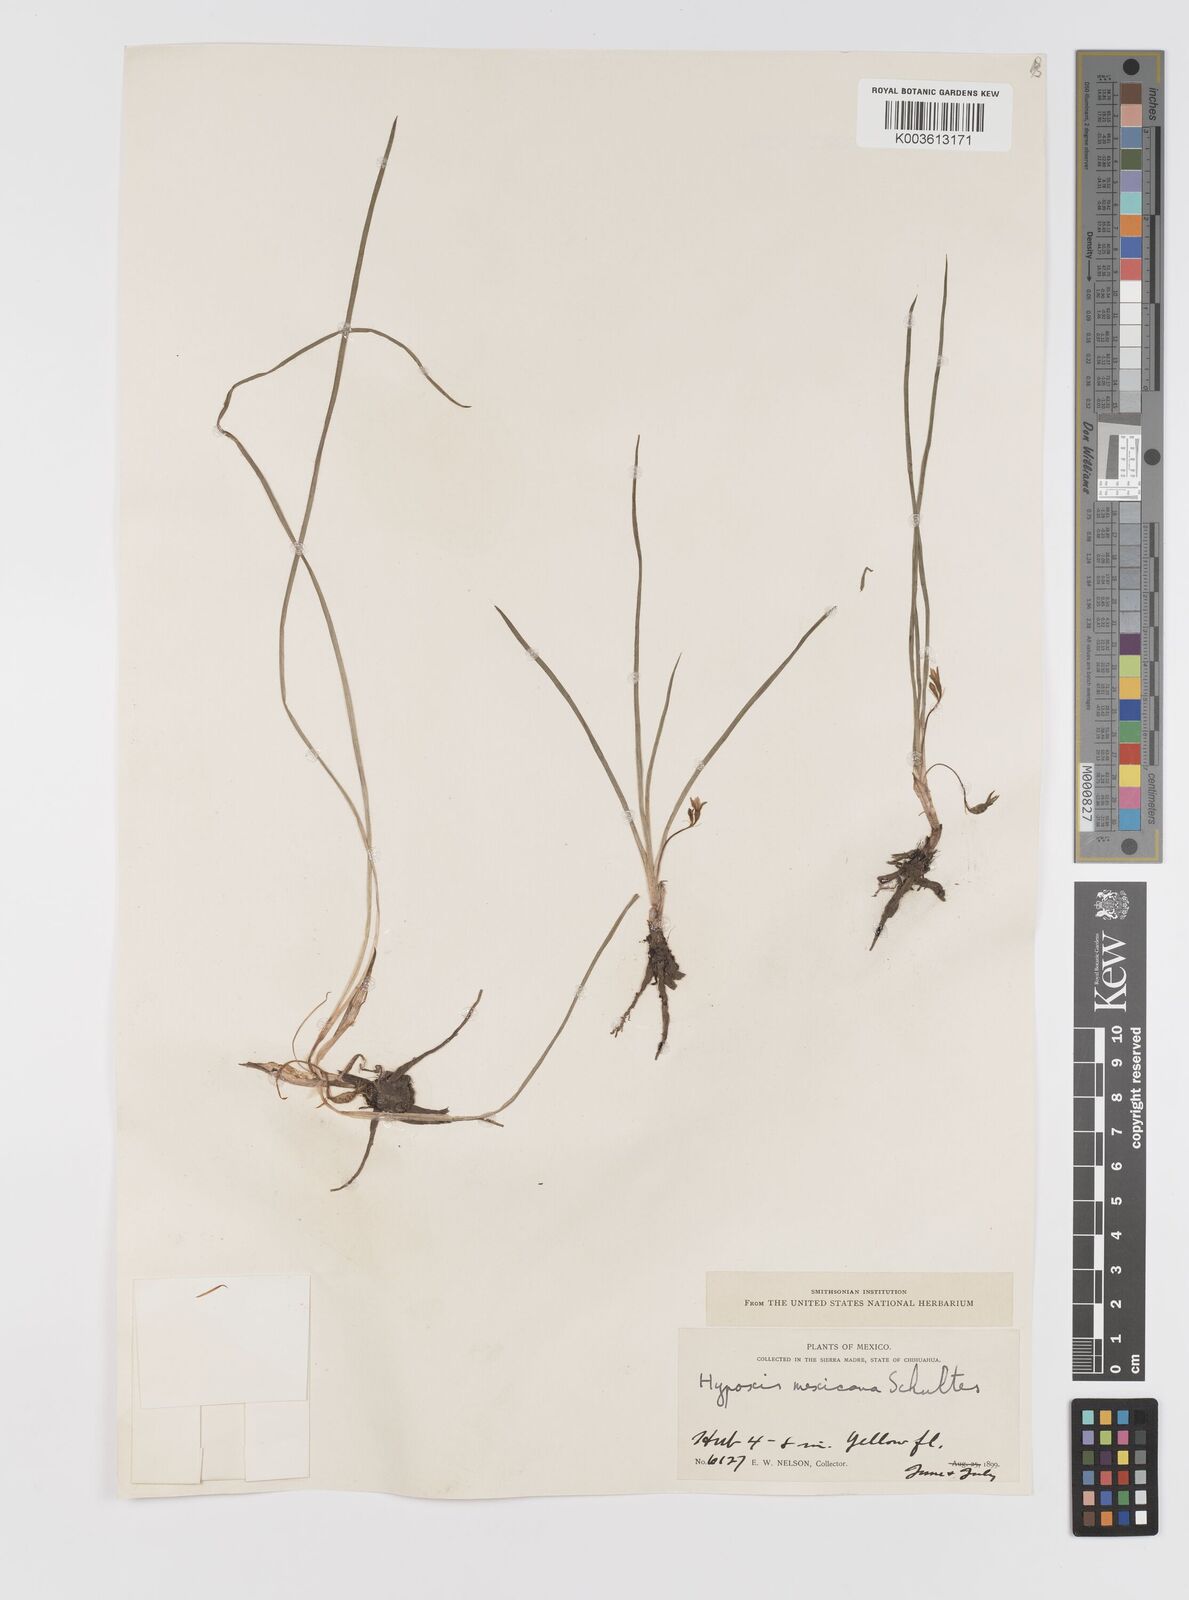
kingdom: Plantae
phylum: Tracheophyta
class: Liliopsida
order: Asparagales
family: Hypoxidaceae
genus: Hypoxis
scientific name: Hypoxis potosina
